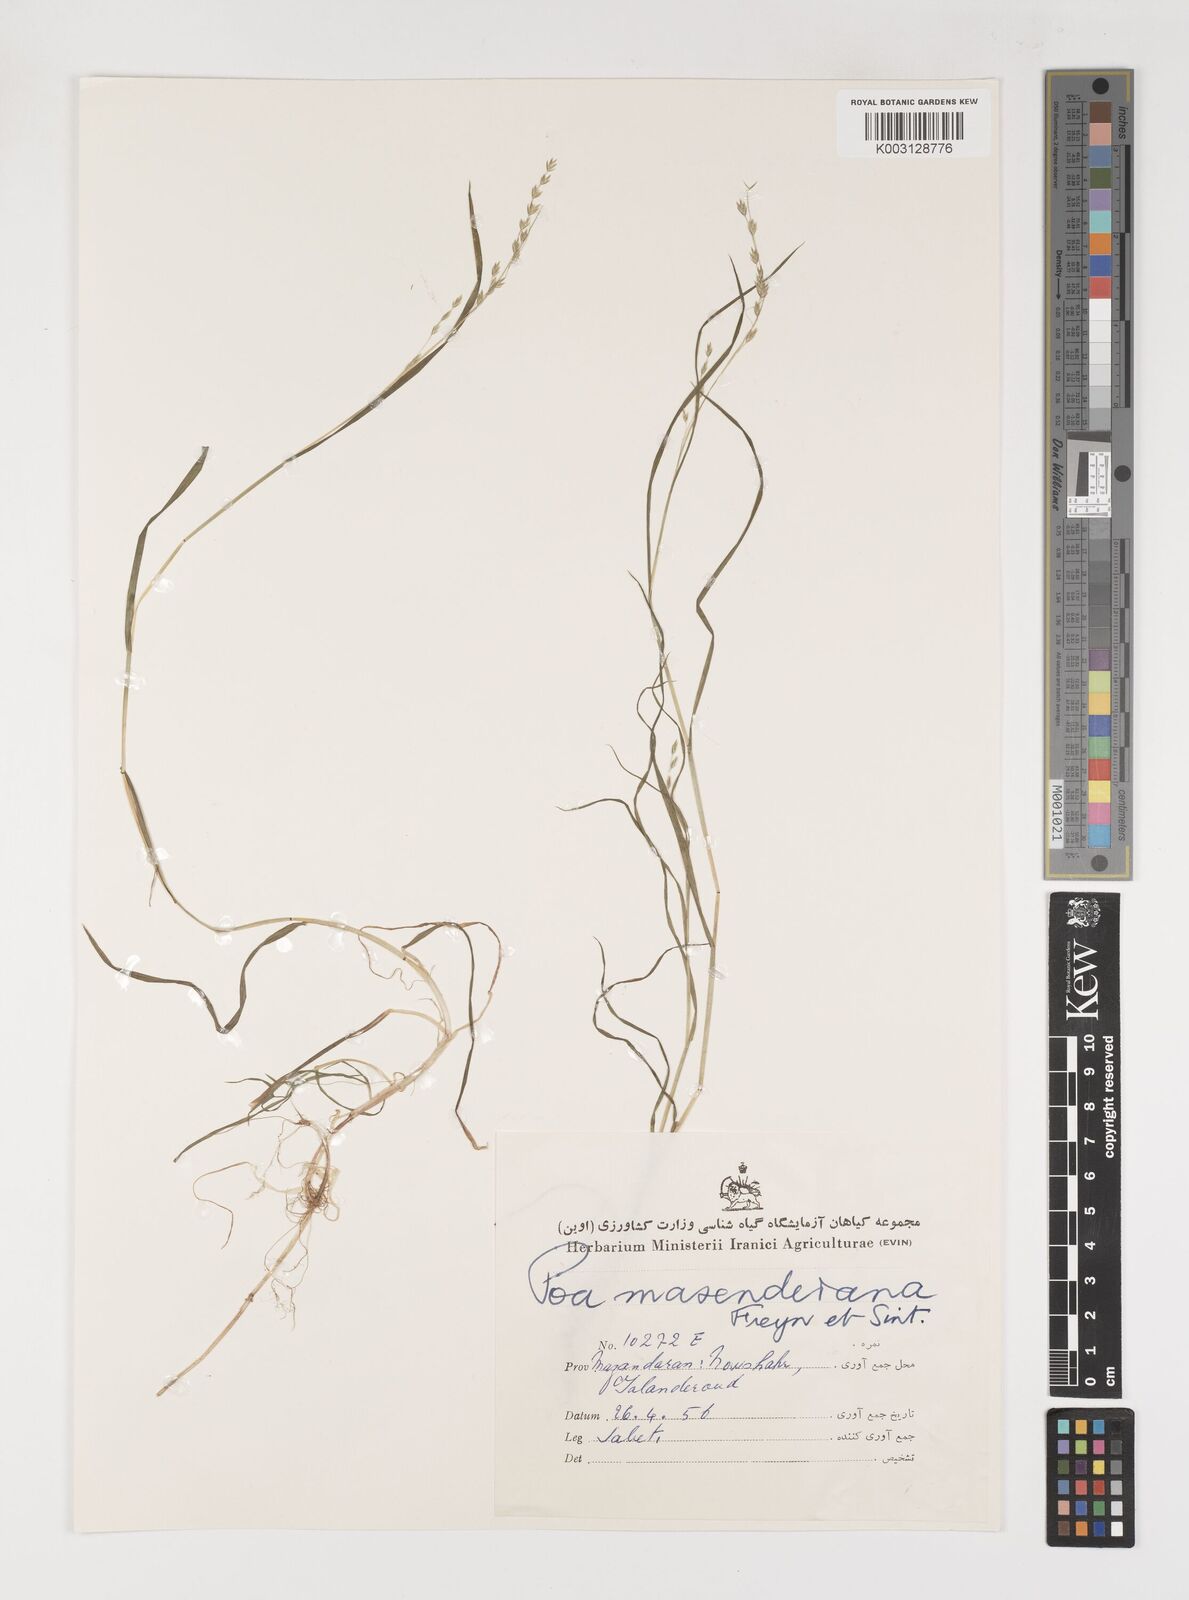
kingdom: Plantae
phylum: Tracheophyta
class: Liliopsida
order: Poales
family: Poaceae
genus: Poa
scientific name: Poa masenderana
